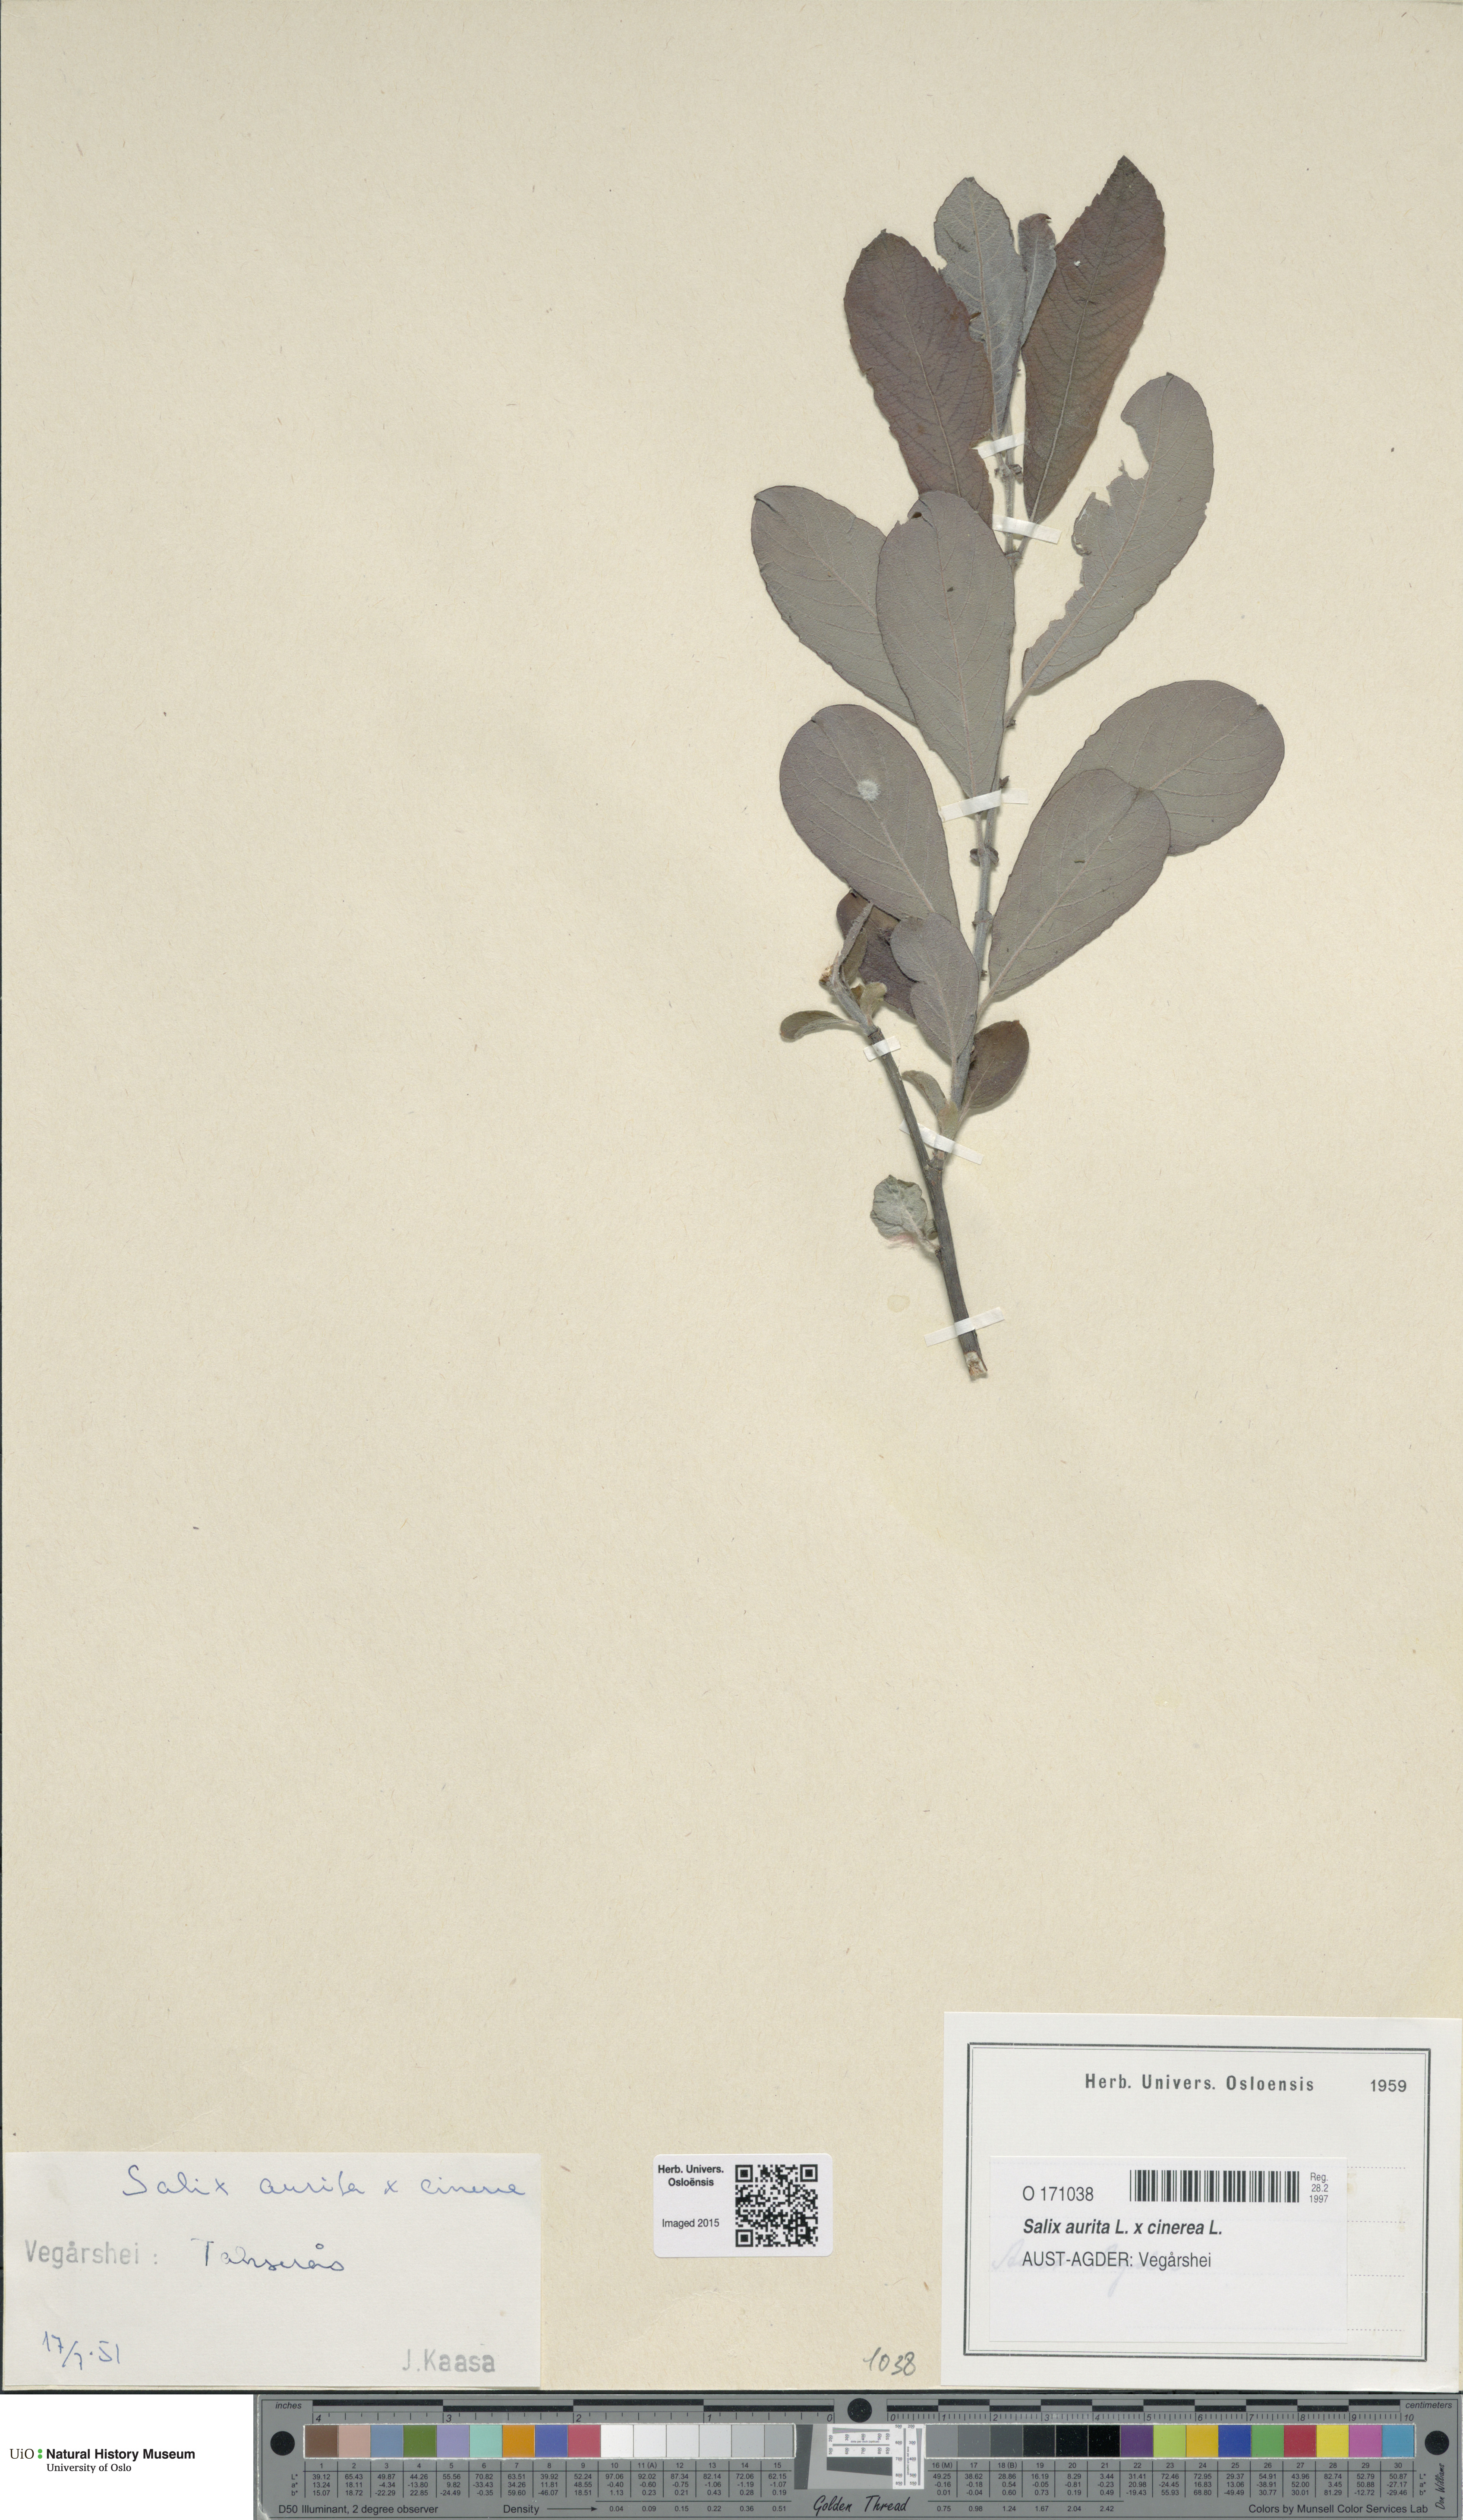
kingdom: Plantae
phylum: Tracheophyta
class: Magnoliopsida
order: Malpighiales
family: Salicaceae
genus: Salix
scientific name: Salix
